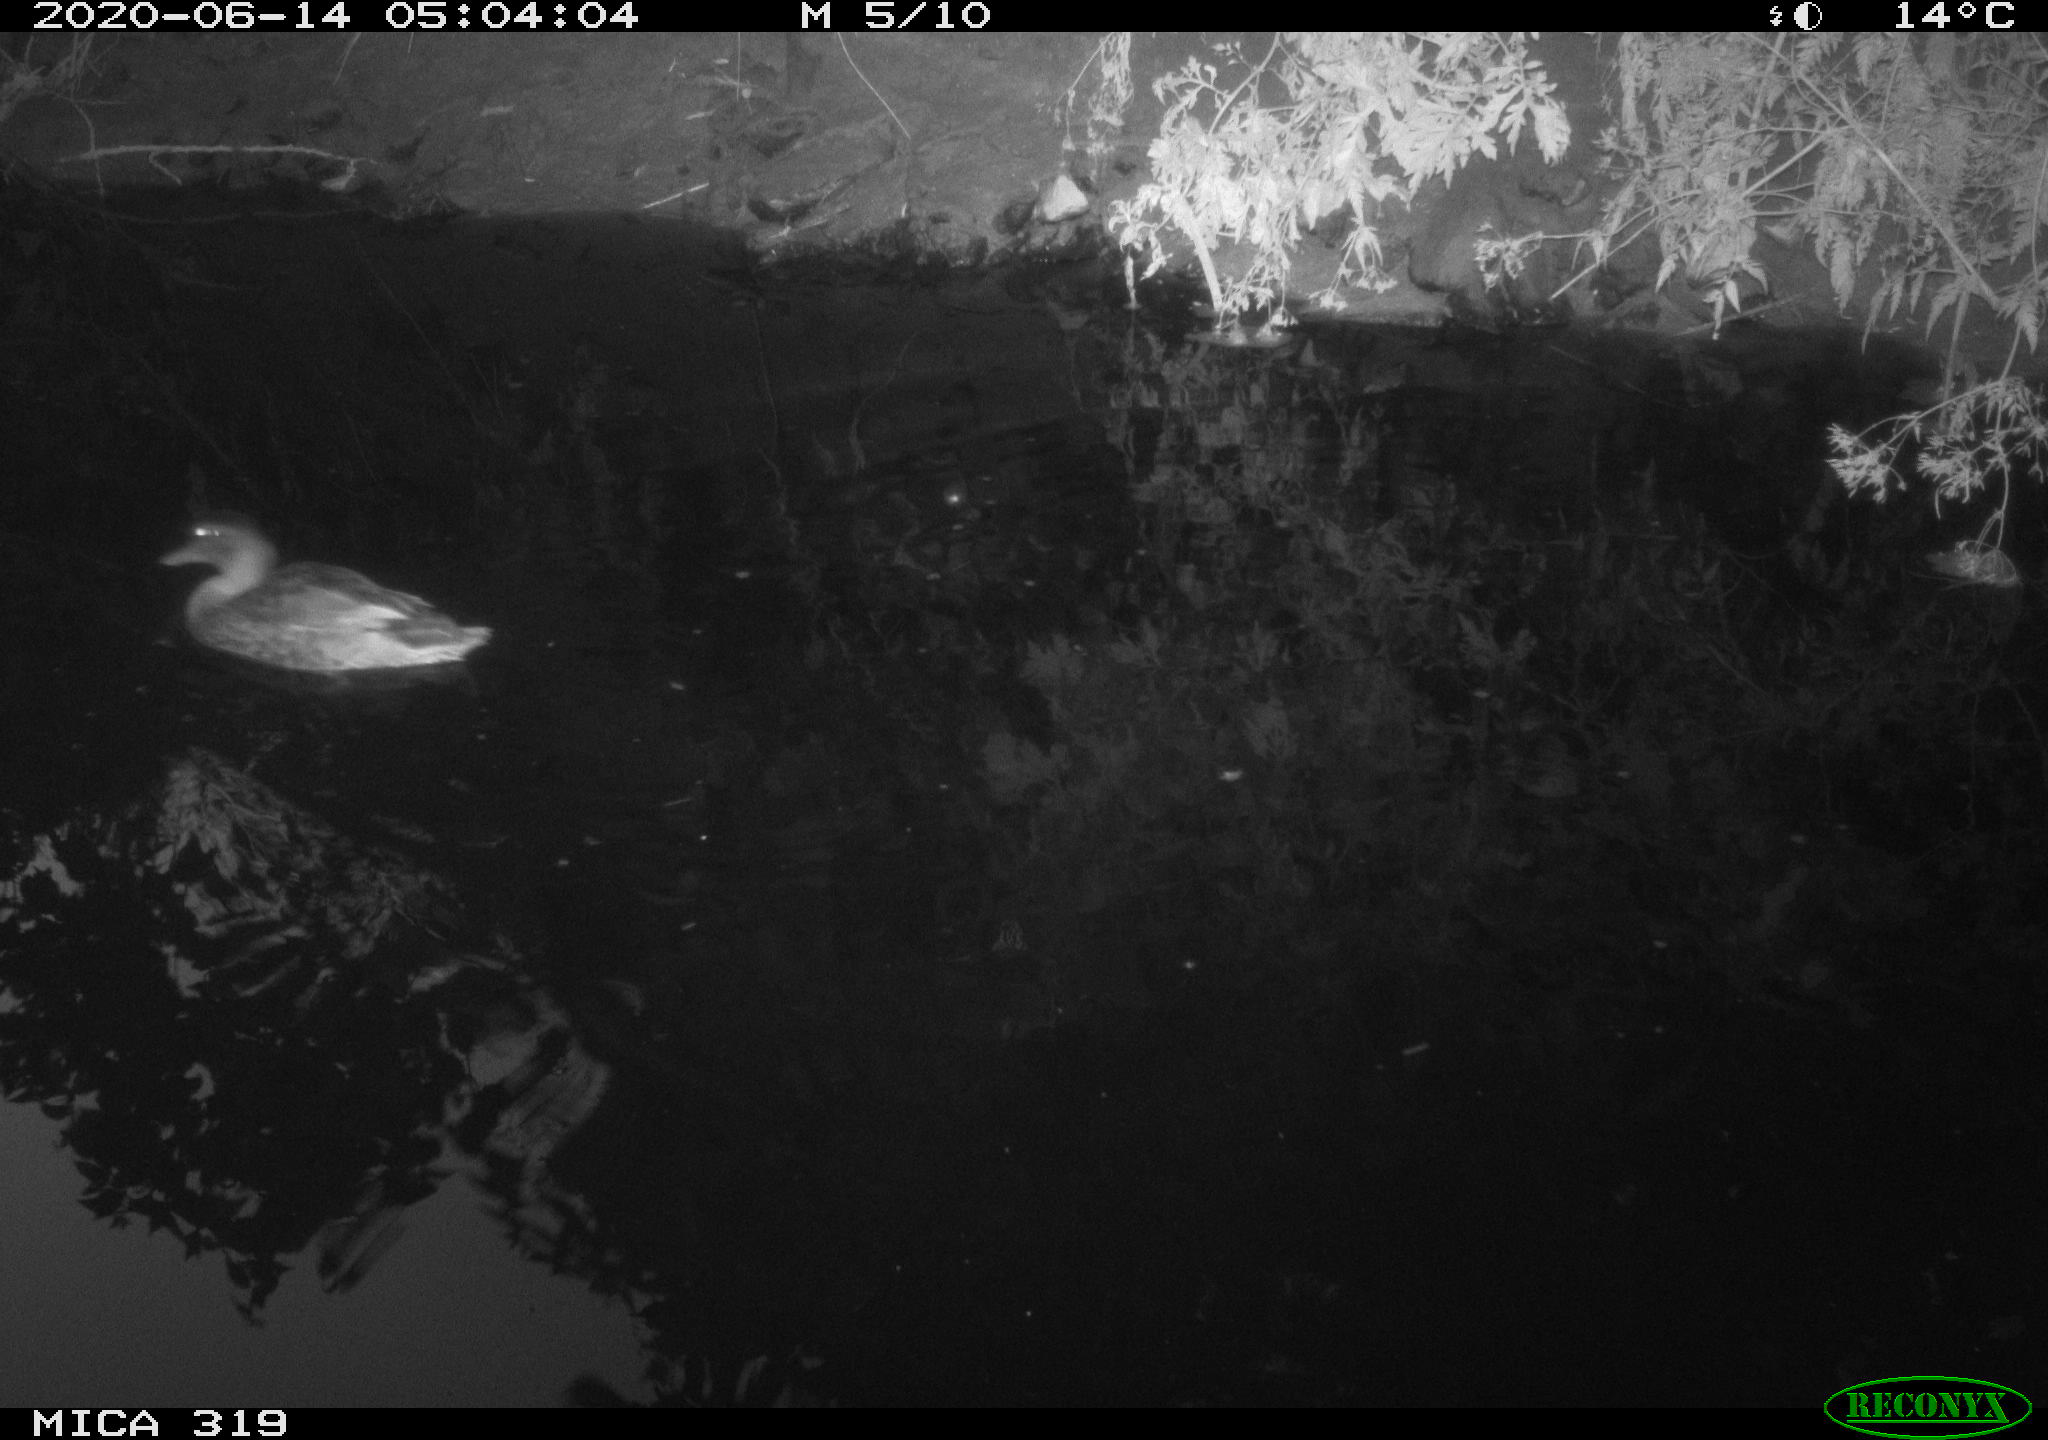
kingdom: Animalia
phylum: Chordata
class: Aves
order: Anseriformes
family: Anatidae
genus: Anas
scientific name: Anas platyrhynchos
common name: Mallard
